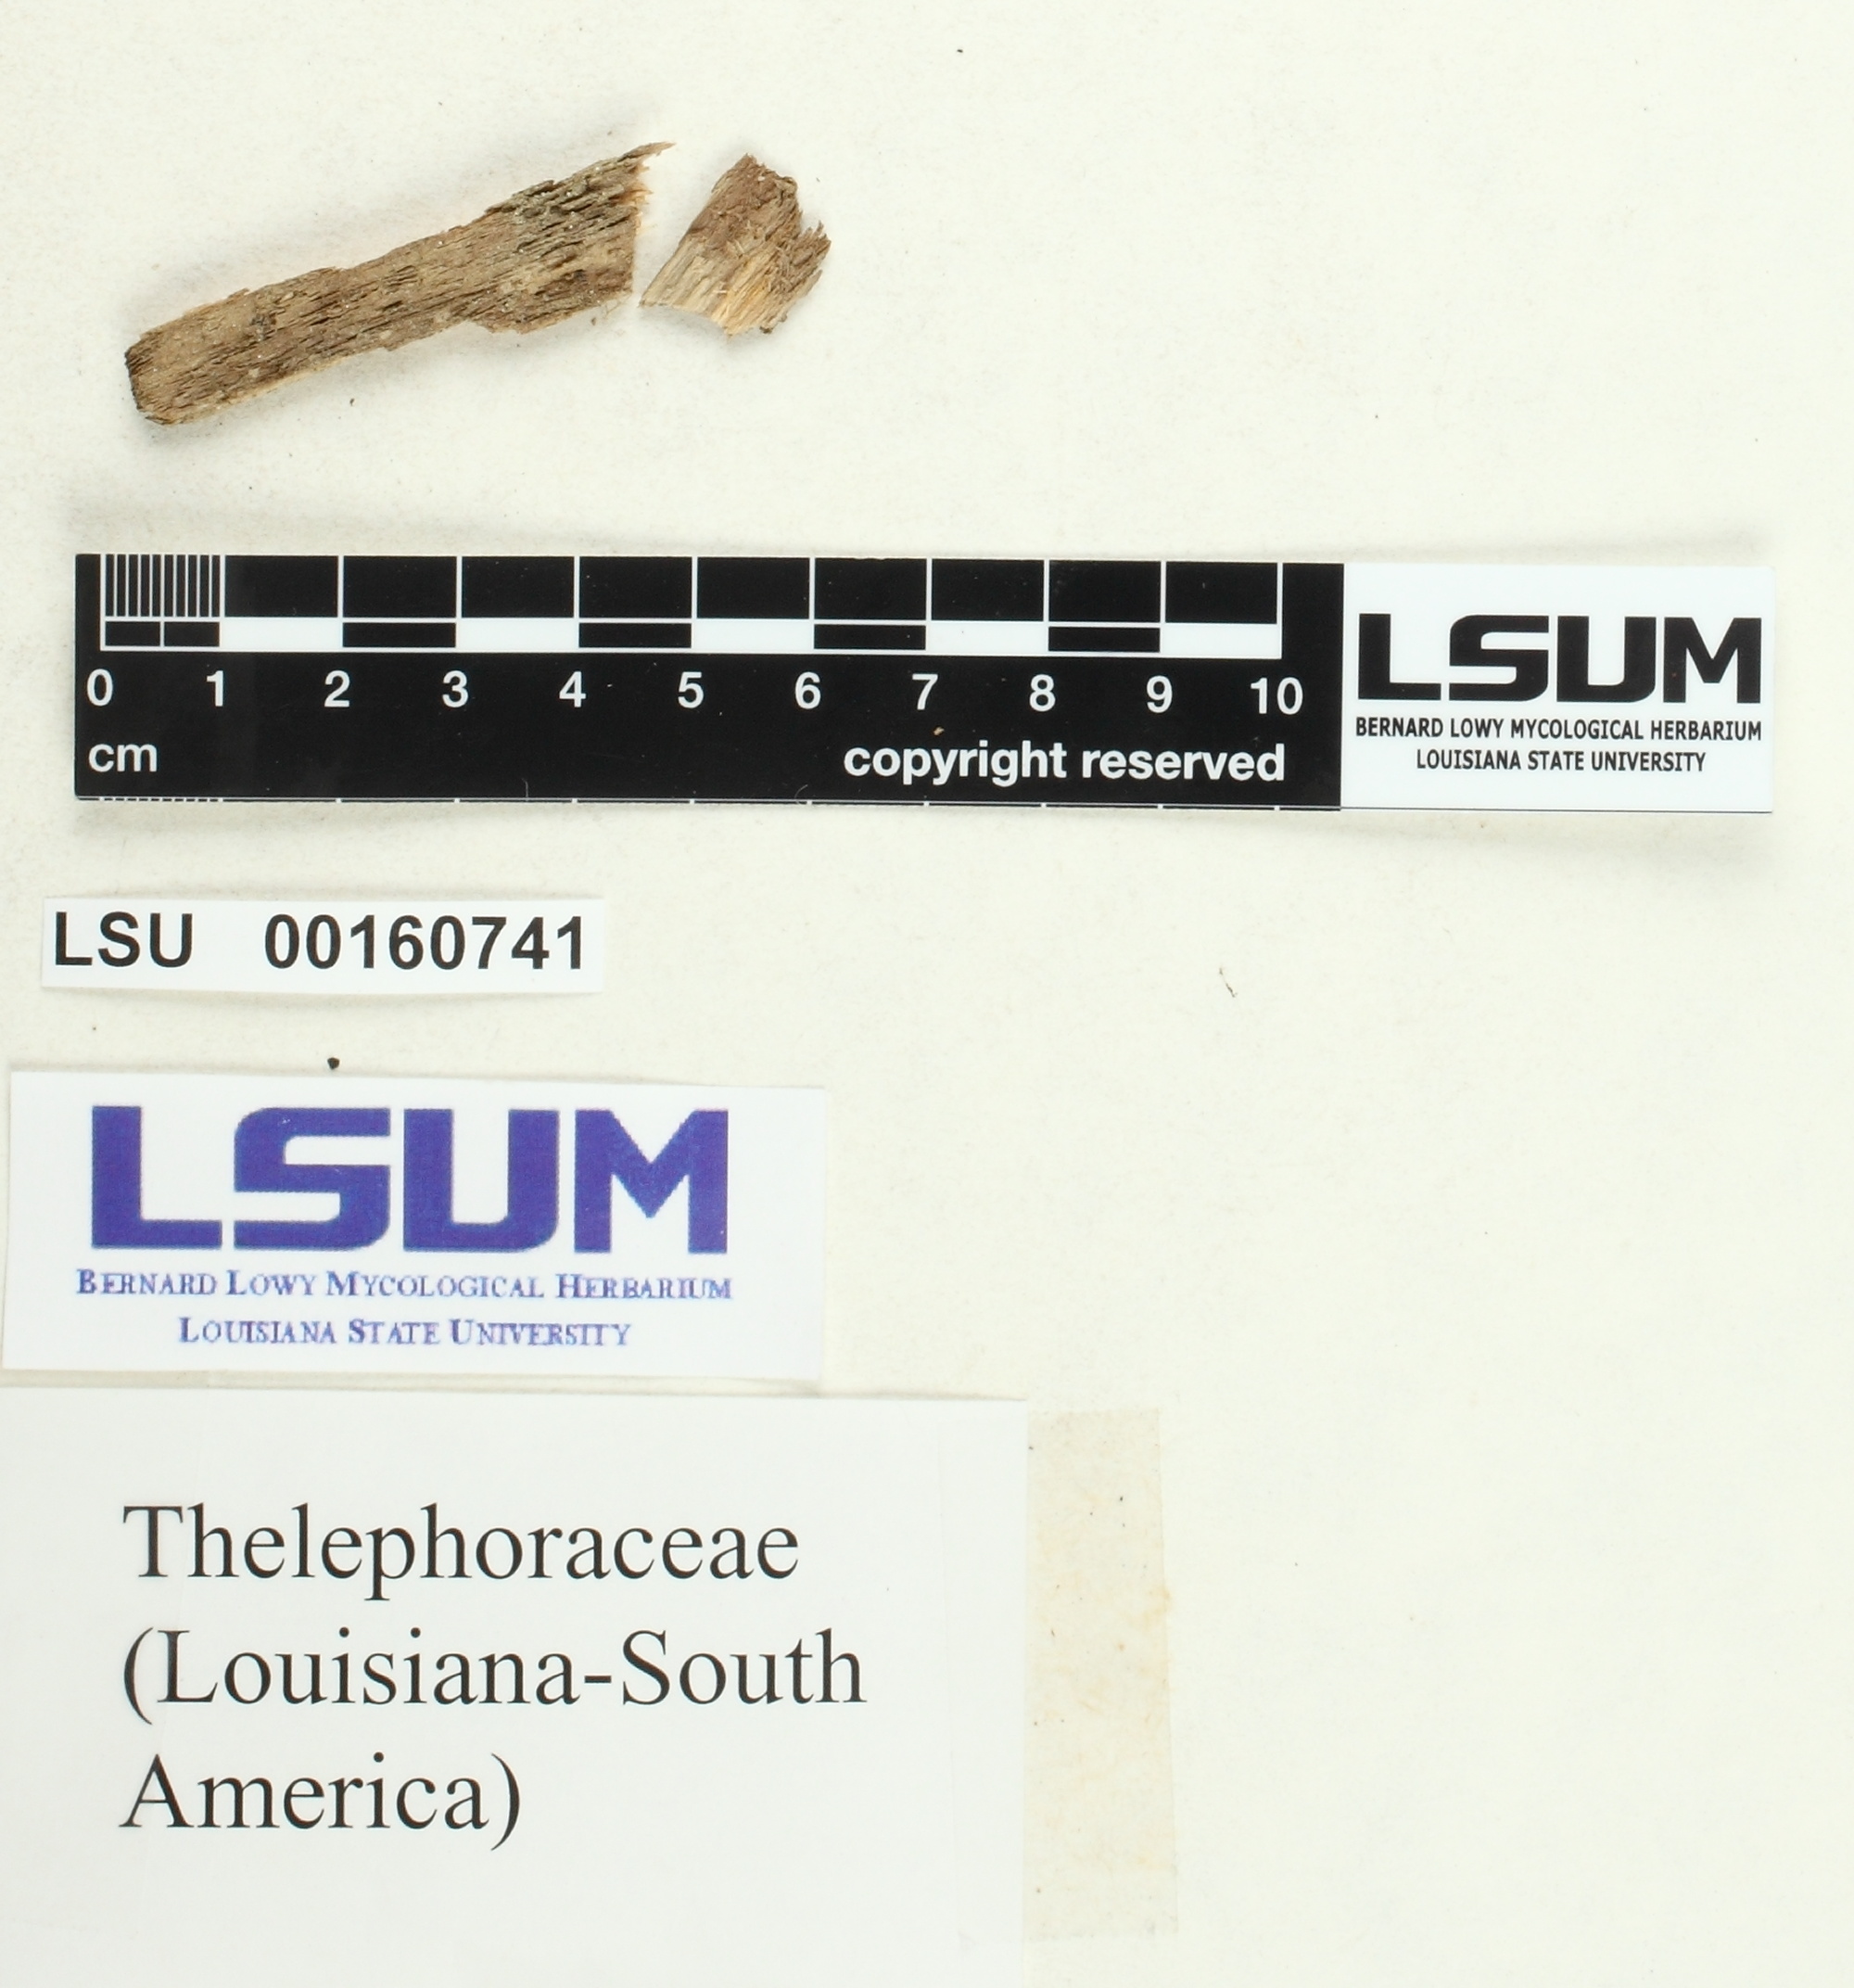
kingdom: Fungi
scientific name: Fungi
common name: Fungi
